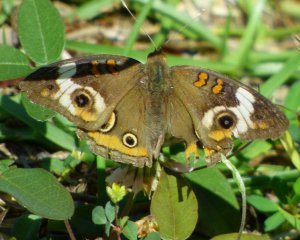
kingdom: Animalia
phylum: Arthropoda
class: Insecta
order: Lepidoptera
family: Nymphalidae
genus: Junonia
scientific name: Junonia coenia
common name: Common Buckeye
